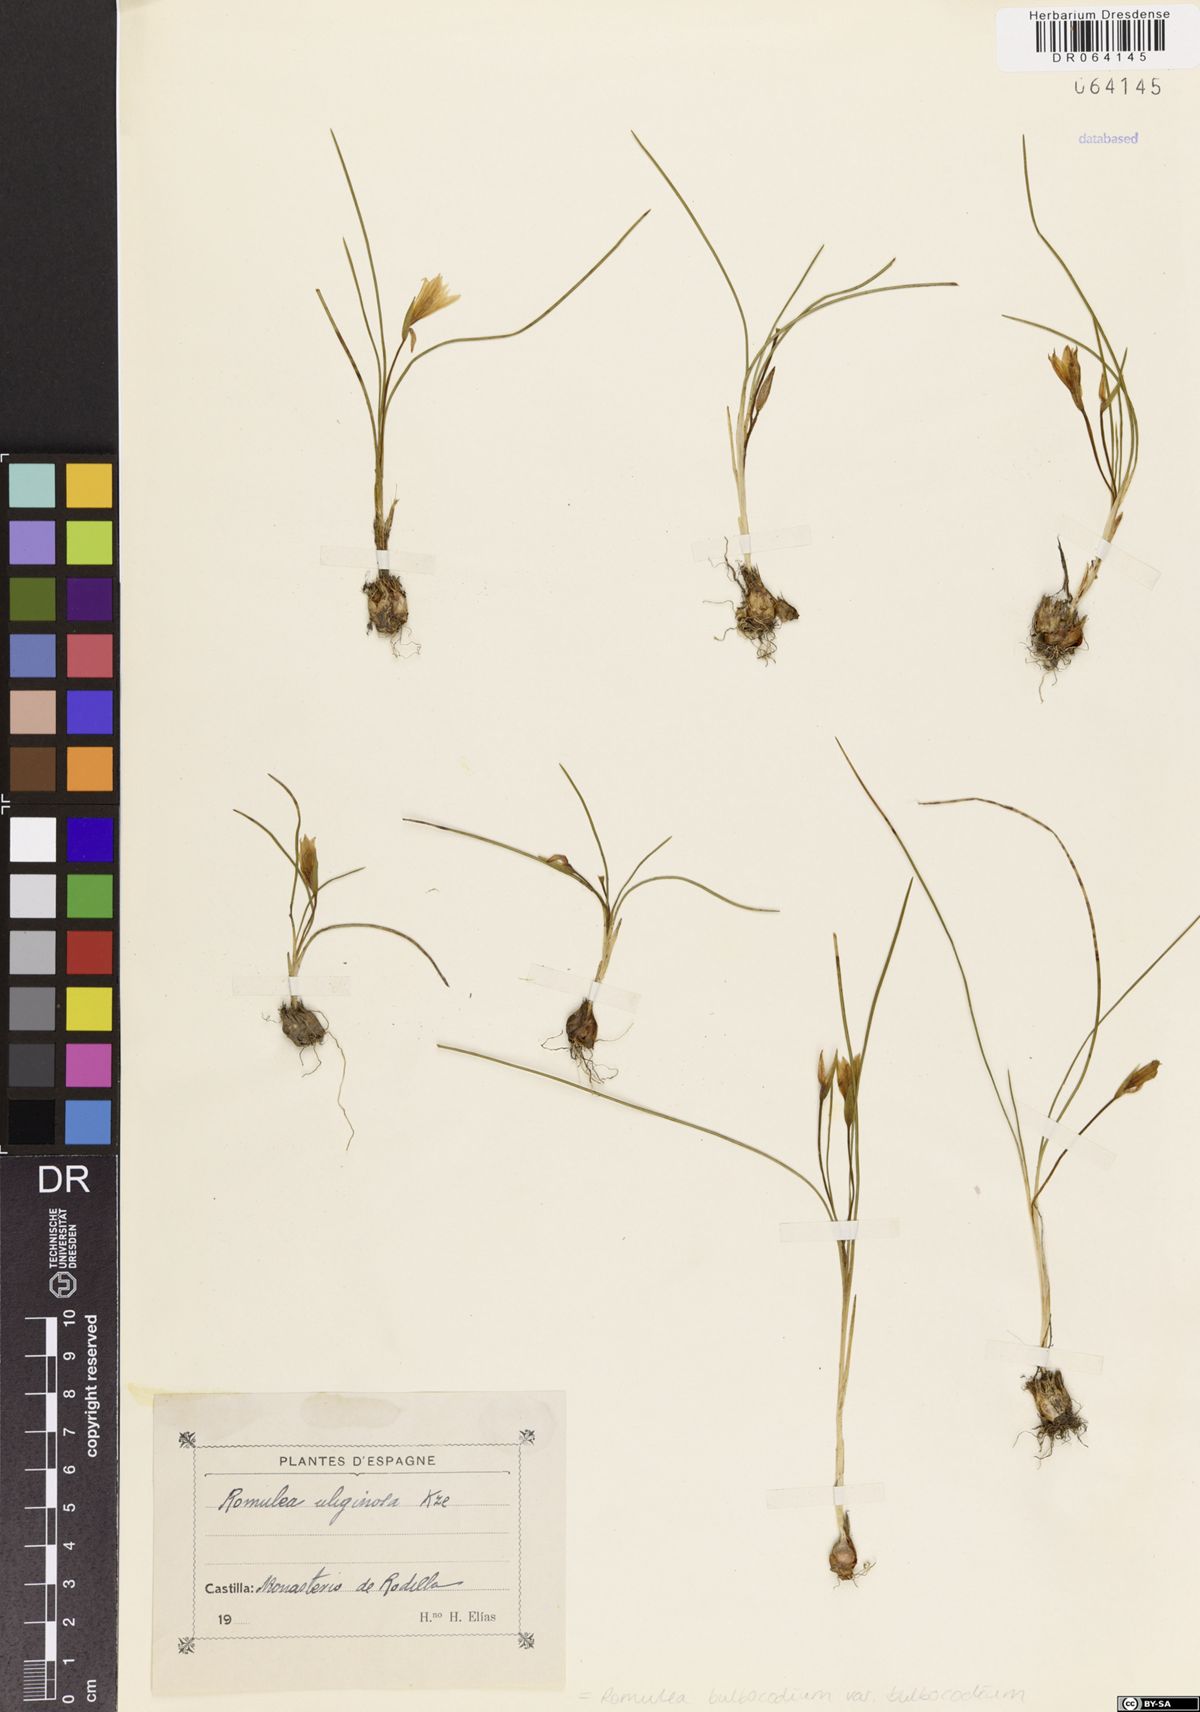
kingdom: Plantae
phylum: Tracheophyta
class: Liliopsida
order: Asparagales
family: Iridaceae
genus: Romulea
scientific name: Romulea bulbocodium
